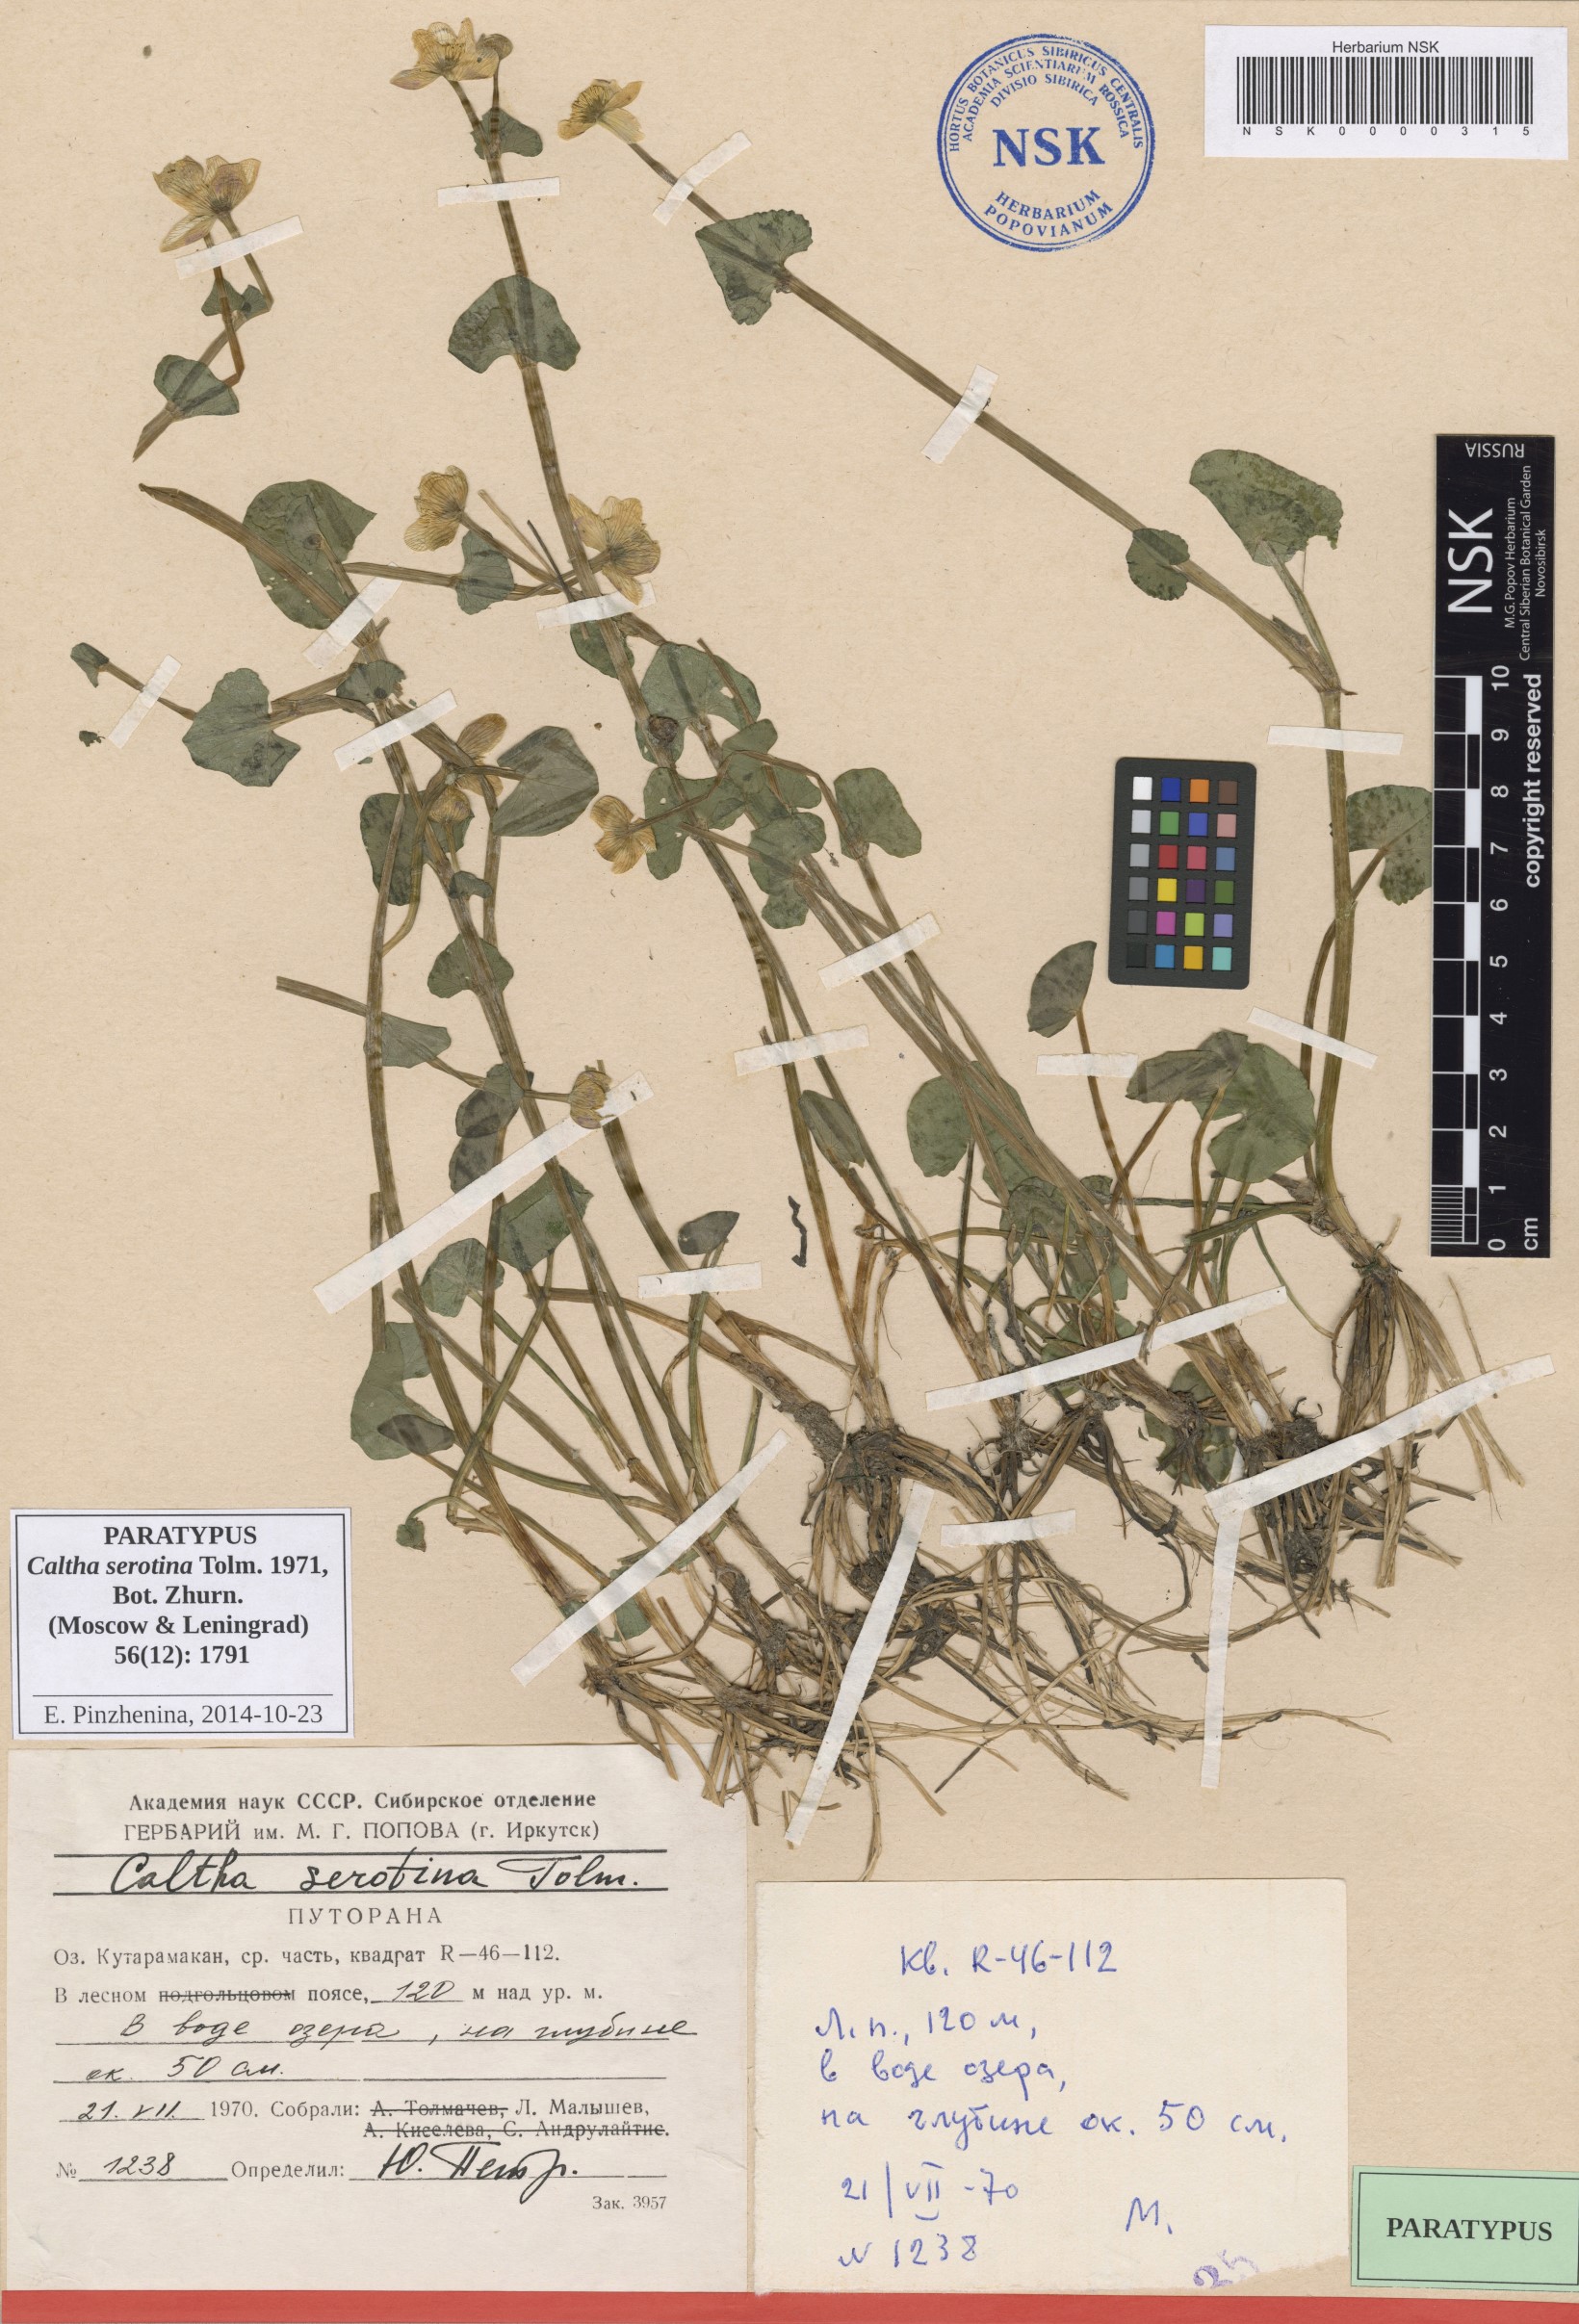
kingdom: Plantae
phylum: Tracheophyta
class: Magnoliopsida
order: Ranunculales
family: Ranunculaceae
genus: Caltha
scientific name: Caltha palustris
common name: Marsh marigold
